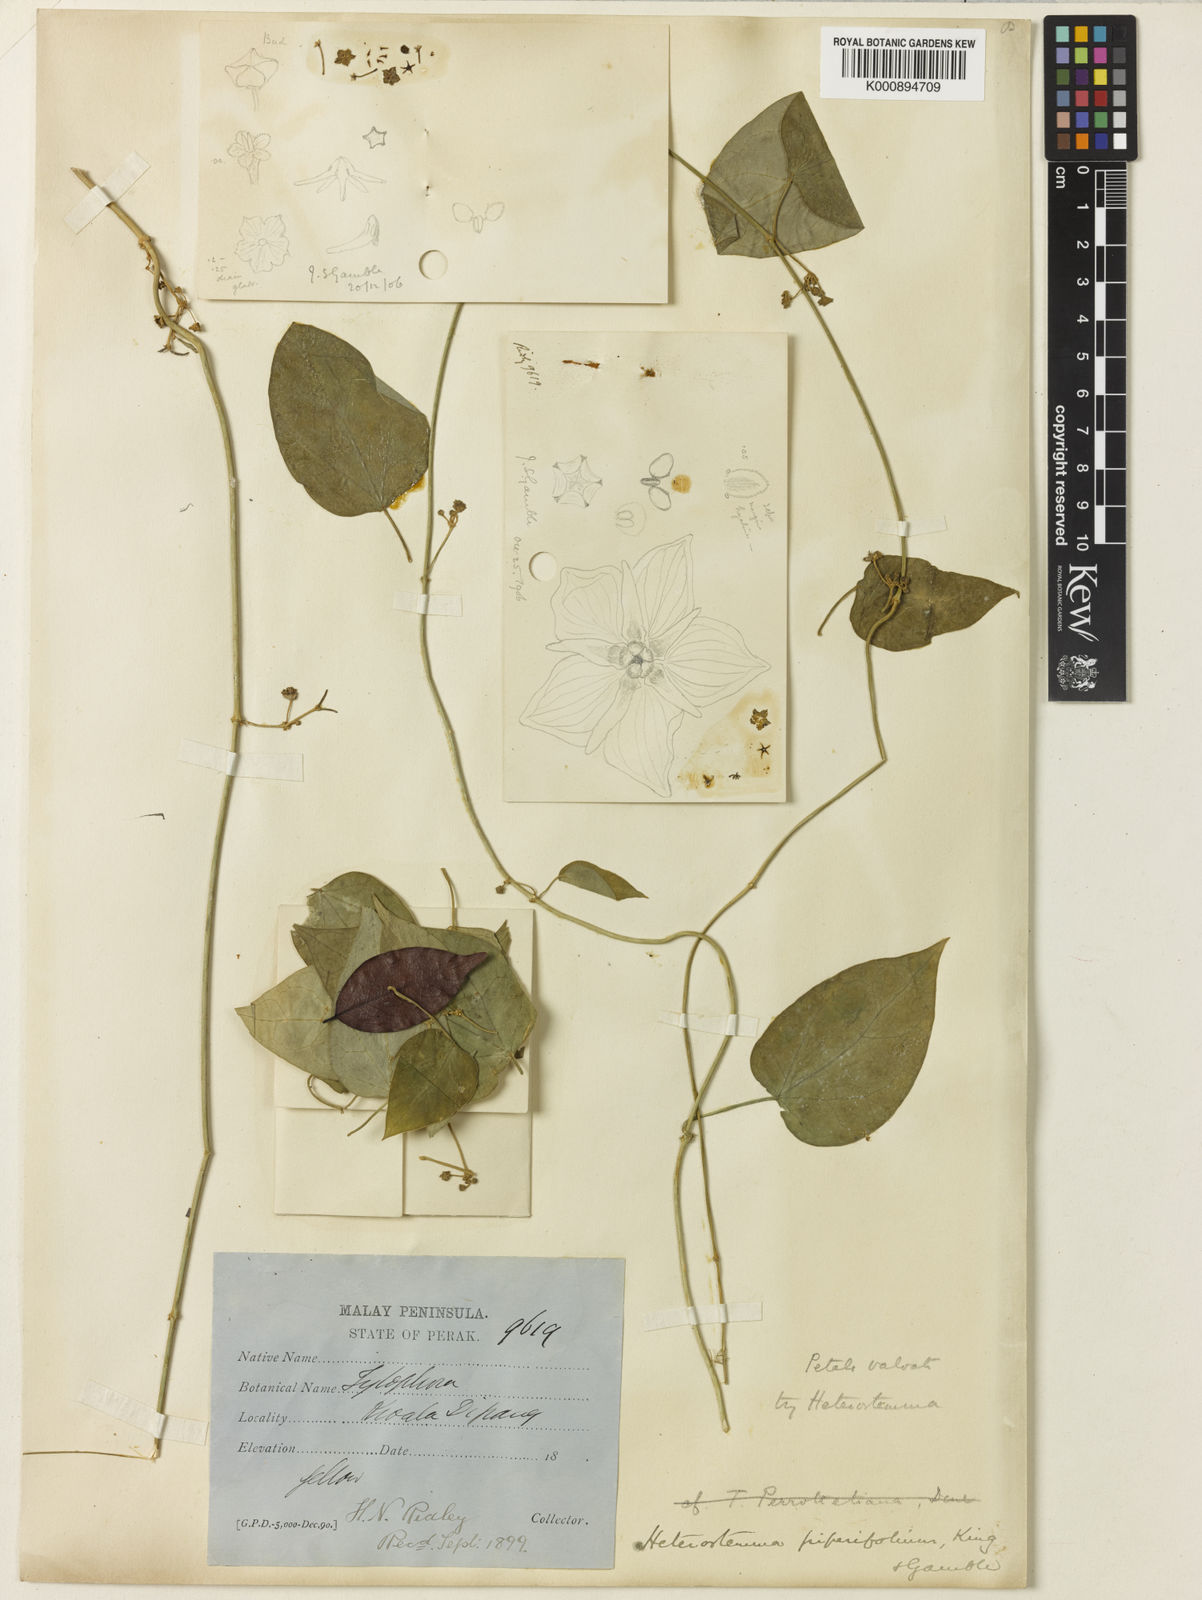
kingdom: Plantae
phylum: Tracheophyta
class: Magnoliopsida
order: Gentianales
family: Apocynaceae
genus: Heterostemma
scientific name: Heterostemma piperifolium
